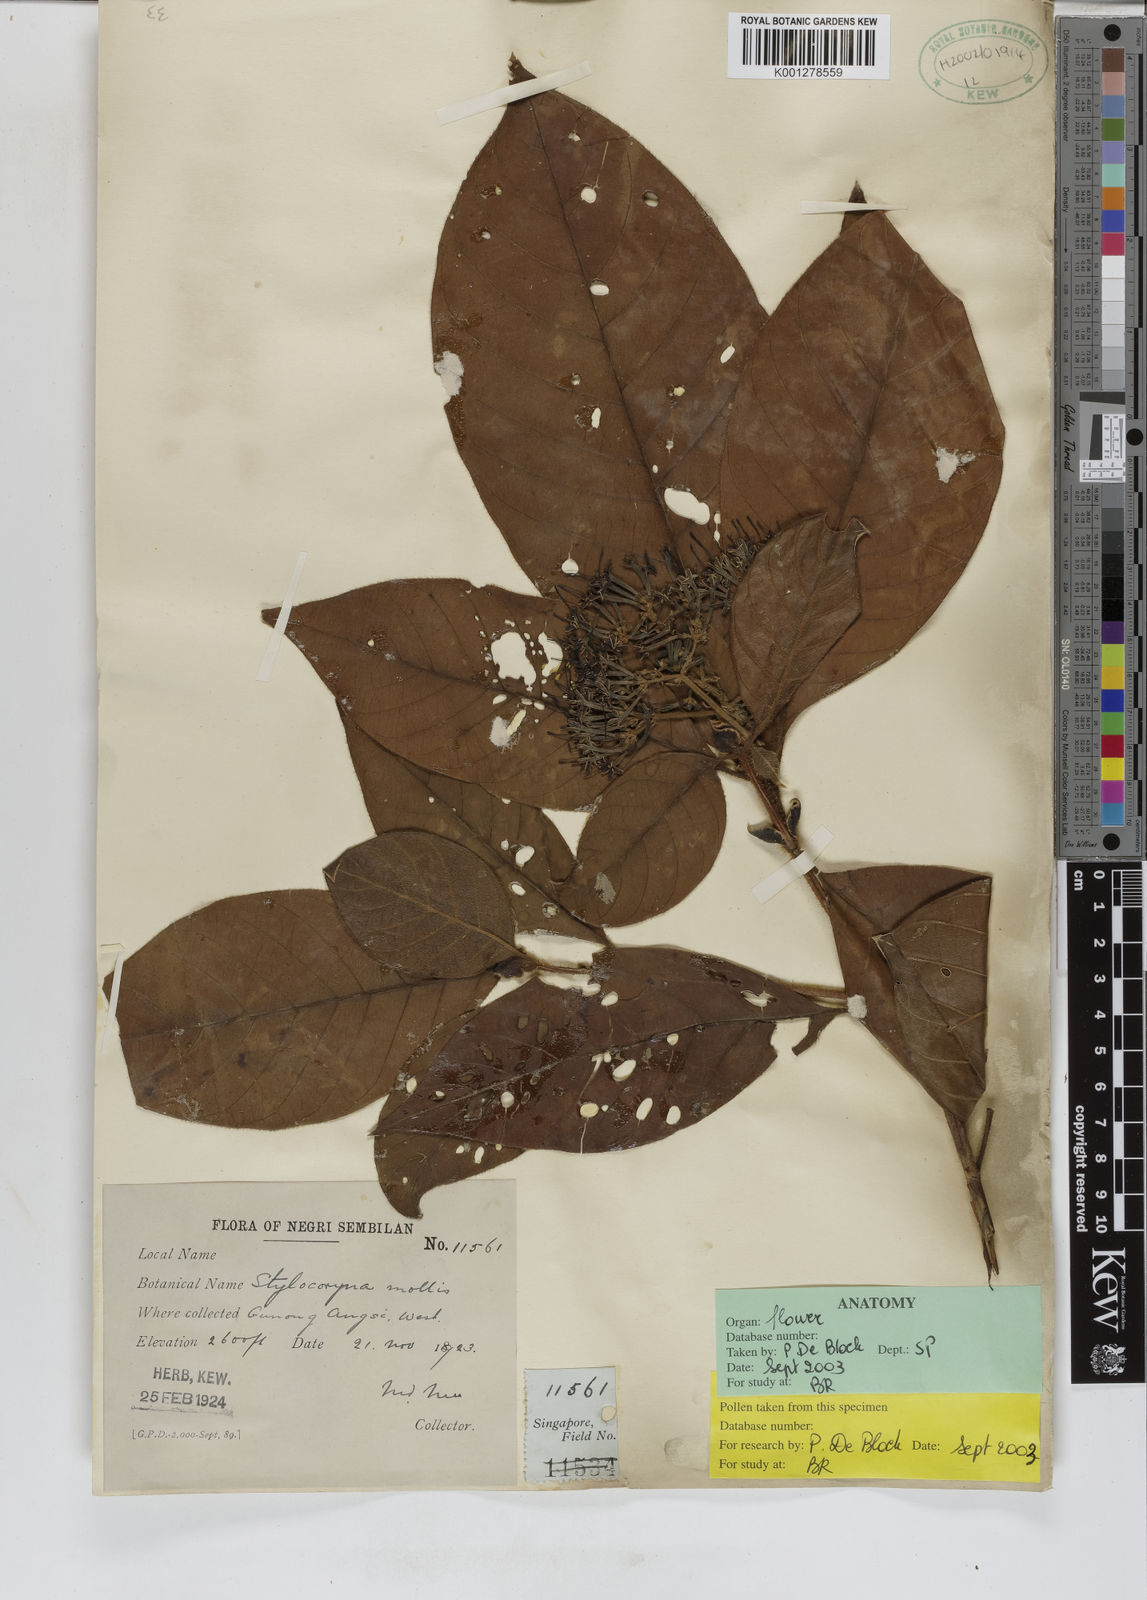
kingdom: Plantae
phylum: Tracheophyta
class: Magnoliopsida
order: Gentianales
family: Rubiaceae
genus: Tarenna
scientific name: Tarenna mollis
